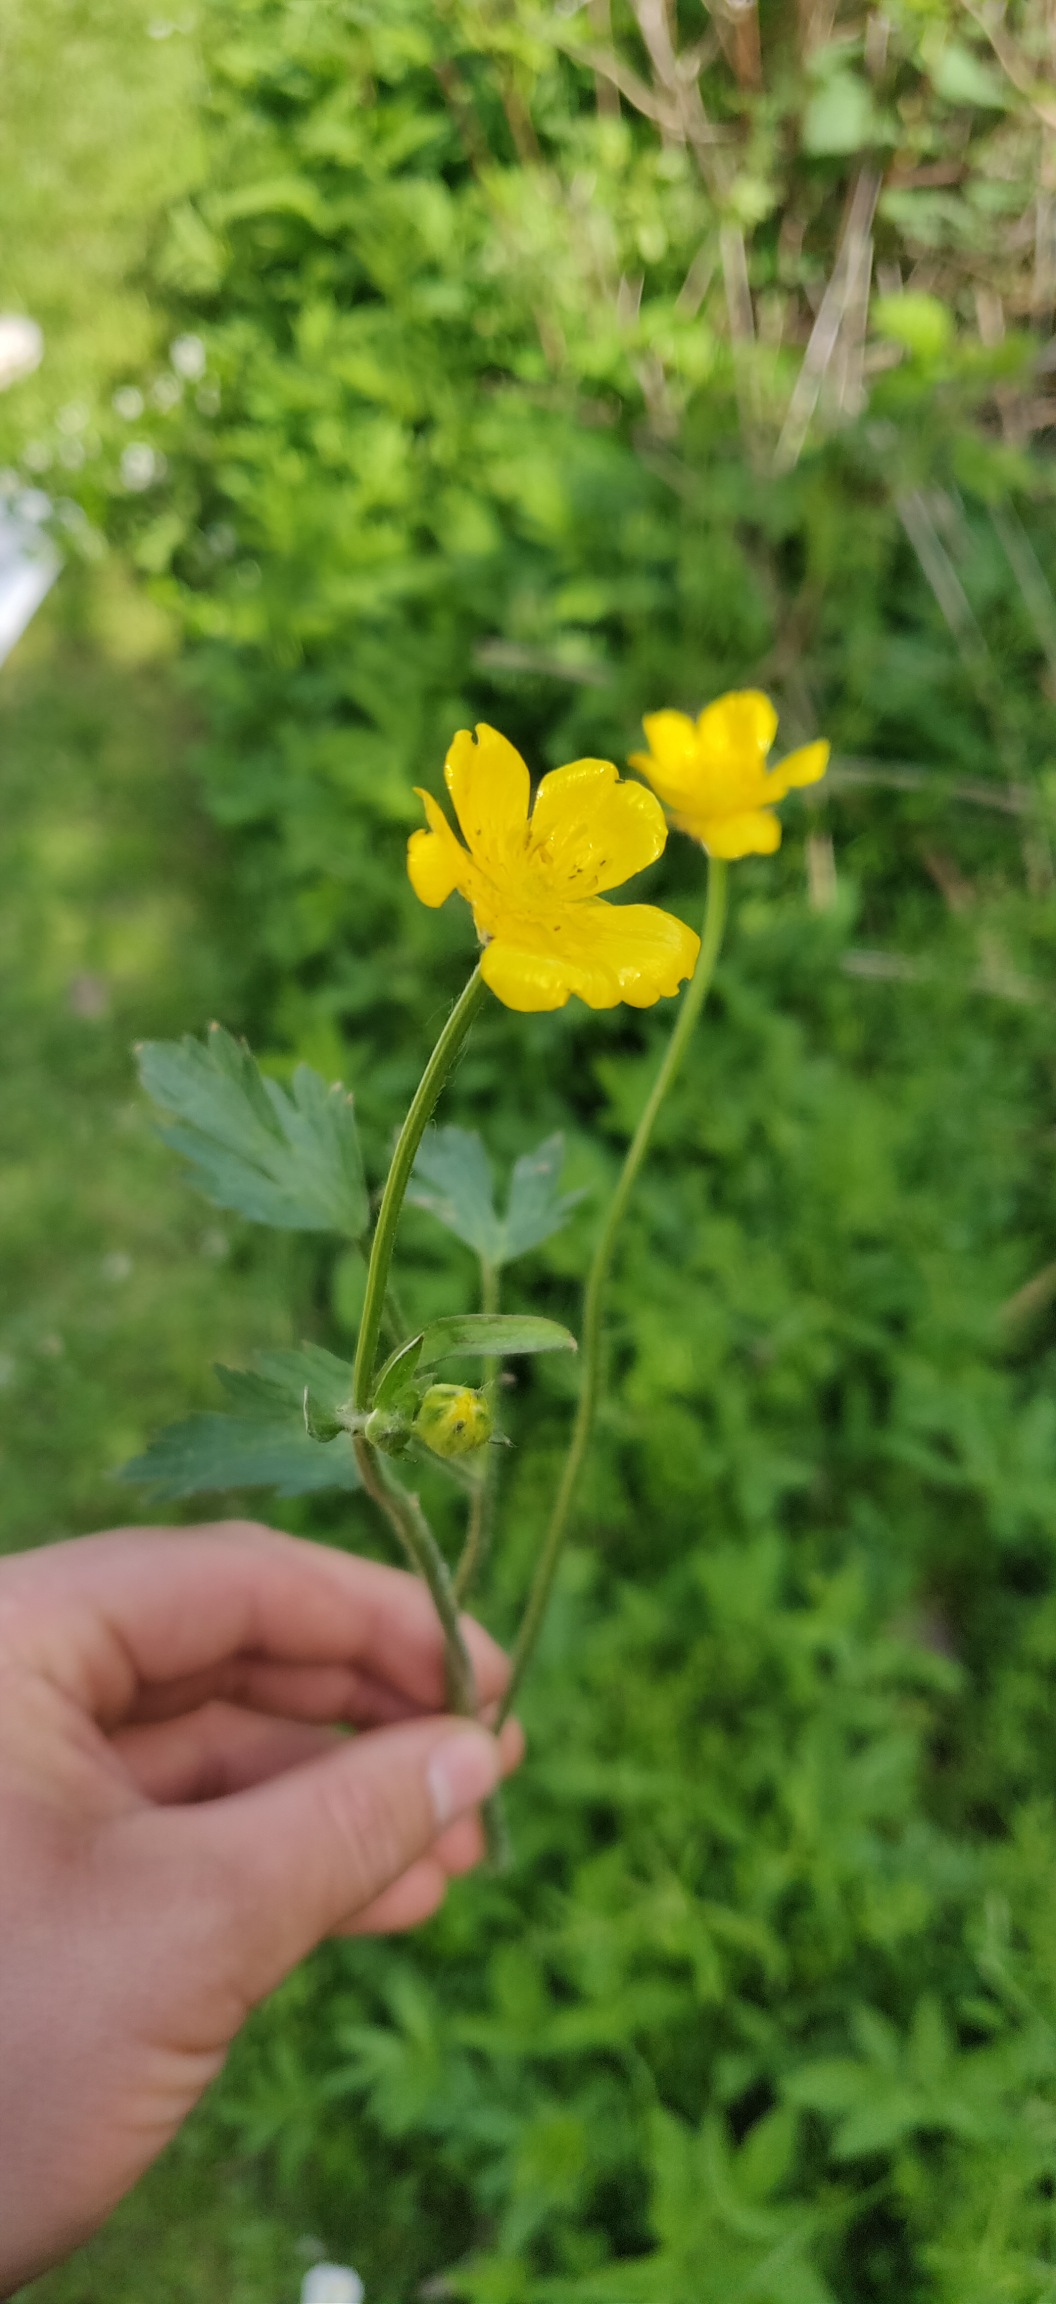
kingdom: Plantae
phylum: Tracheophyta
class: Magnoliopsida
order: Ranunculales
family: Ranunculaceae
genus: Ranunculus
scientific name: Ranunculus repens
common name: Lav ranunkel
